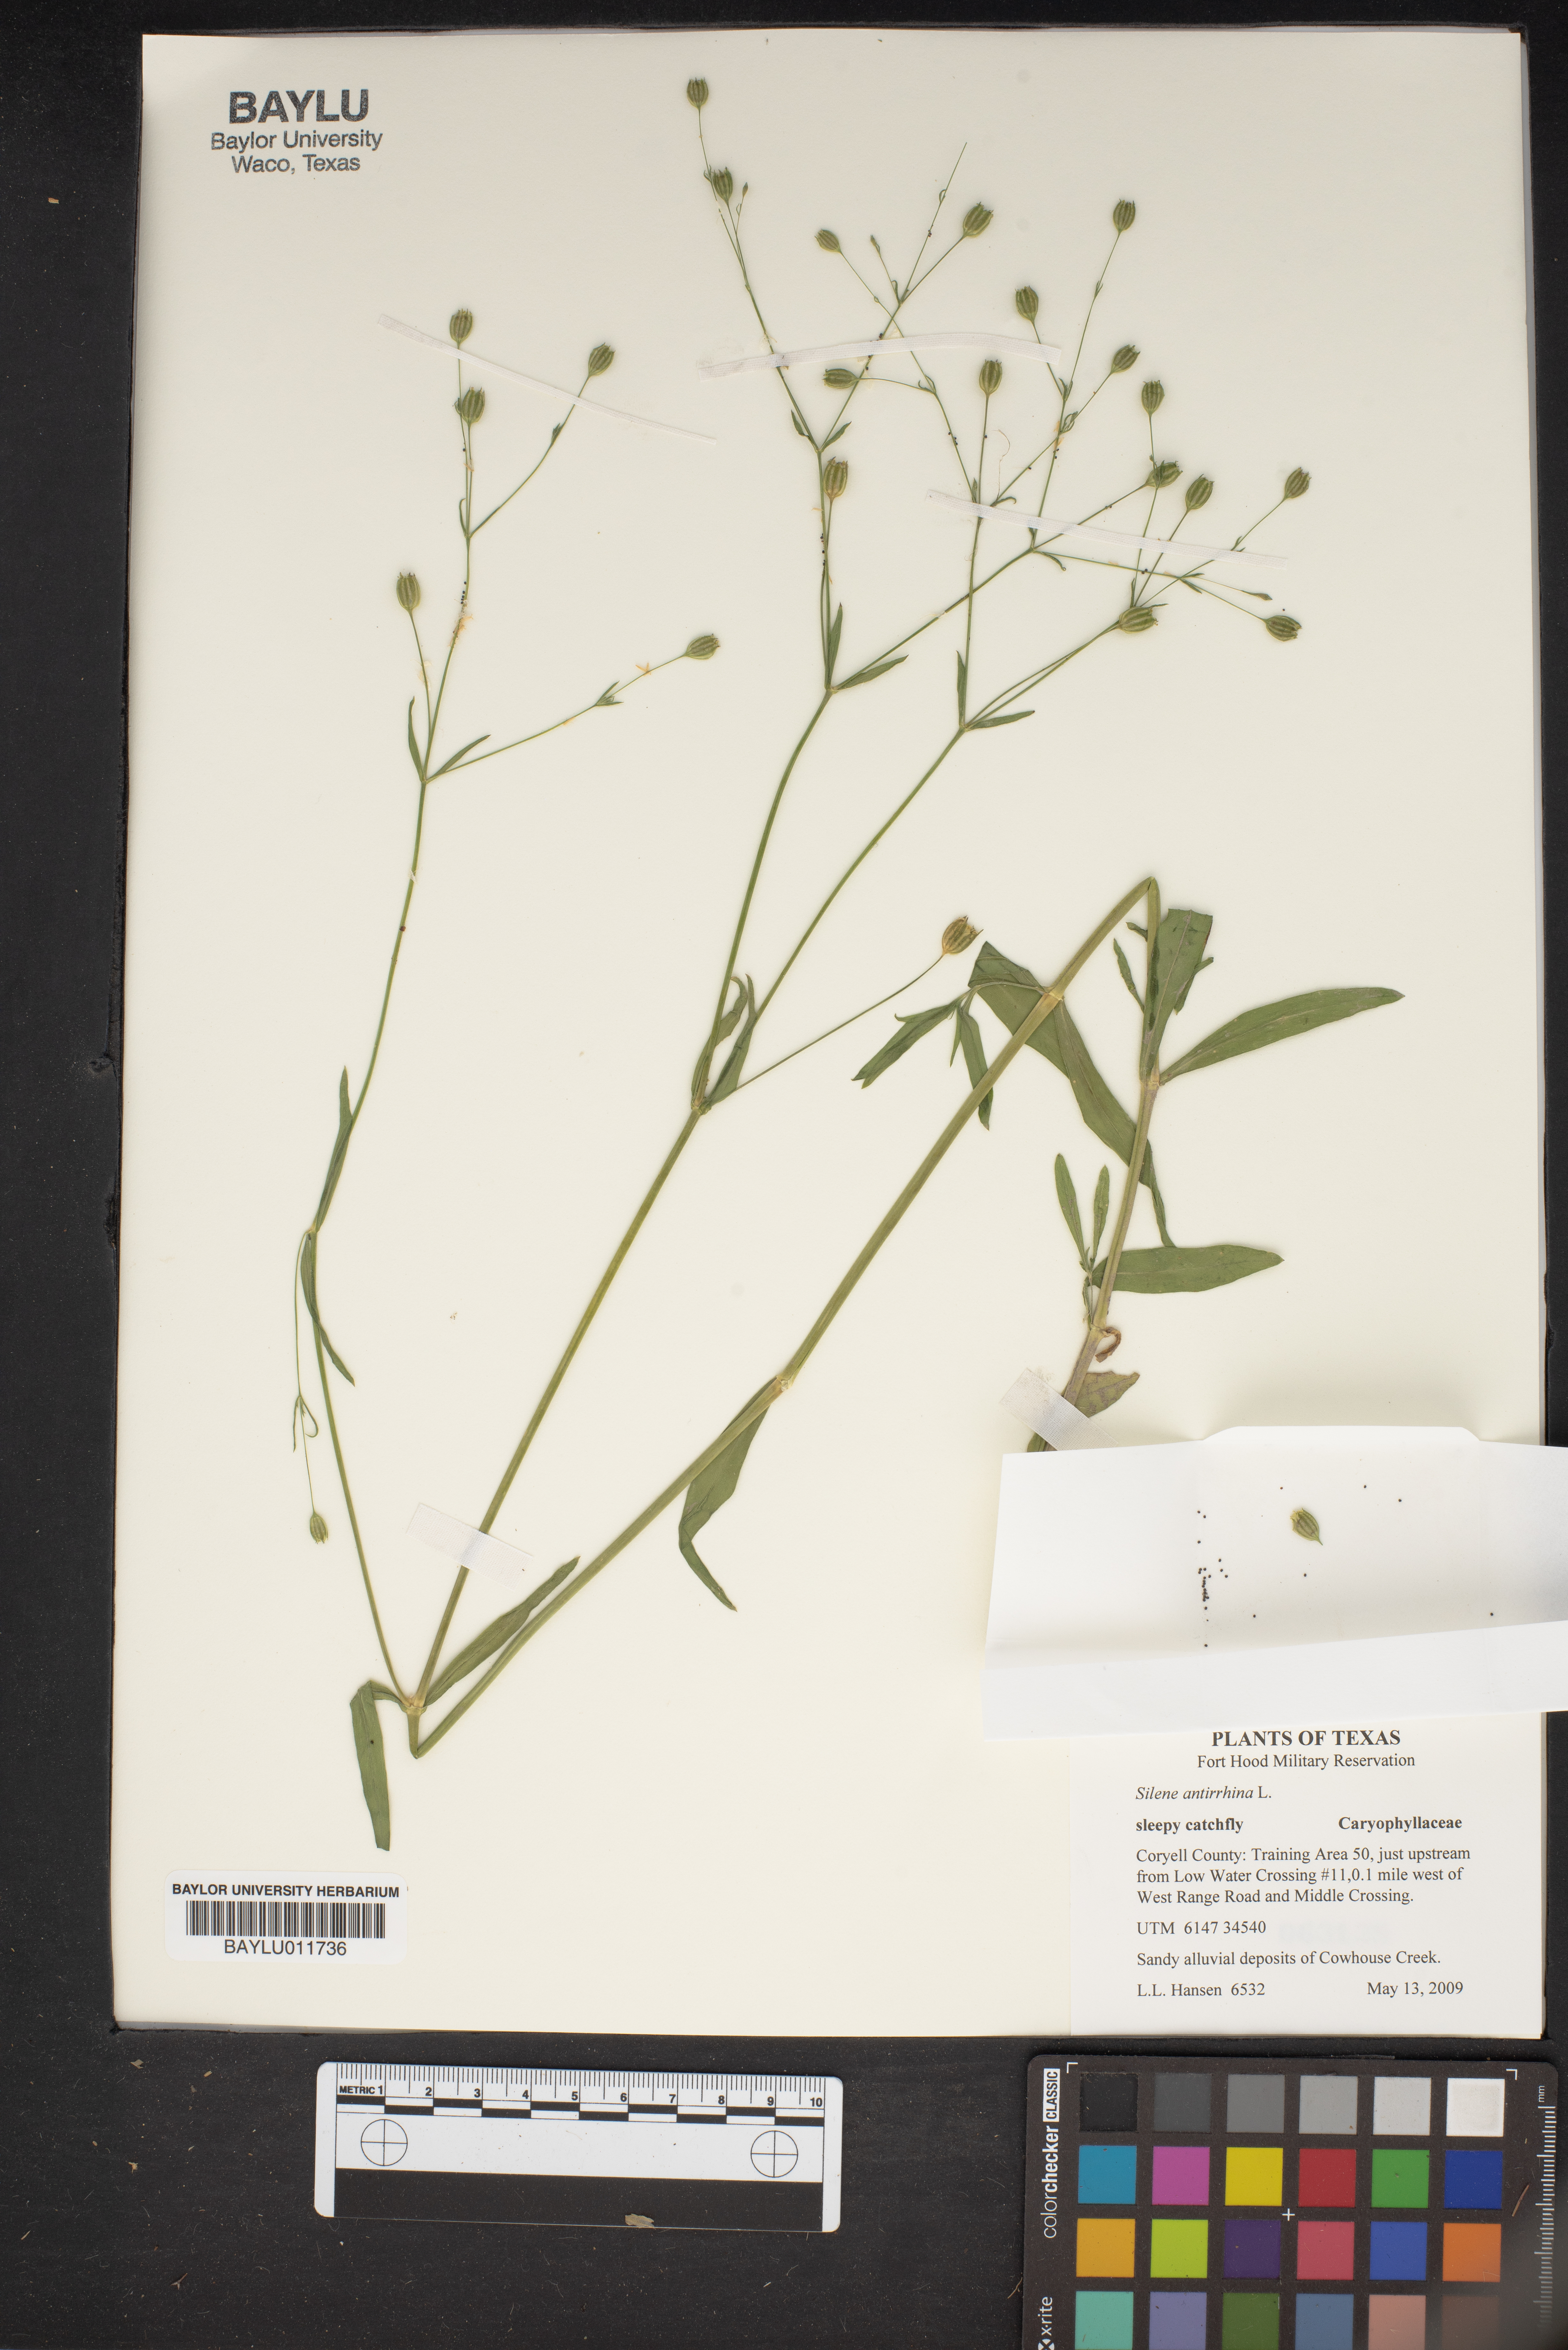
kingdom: Plantae
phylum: Tracheophyta
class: Magnoliopsida
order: Caryophyllales
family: Caryophyllaceae
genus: Silene
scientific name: Silene antirrhina
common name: Sleepy catchfly
